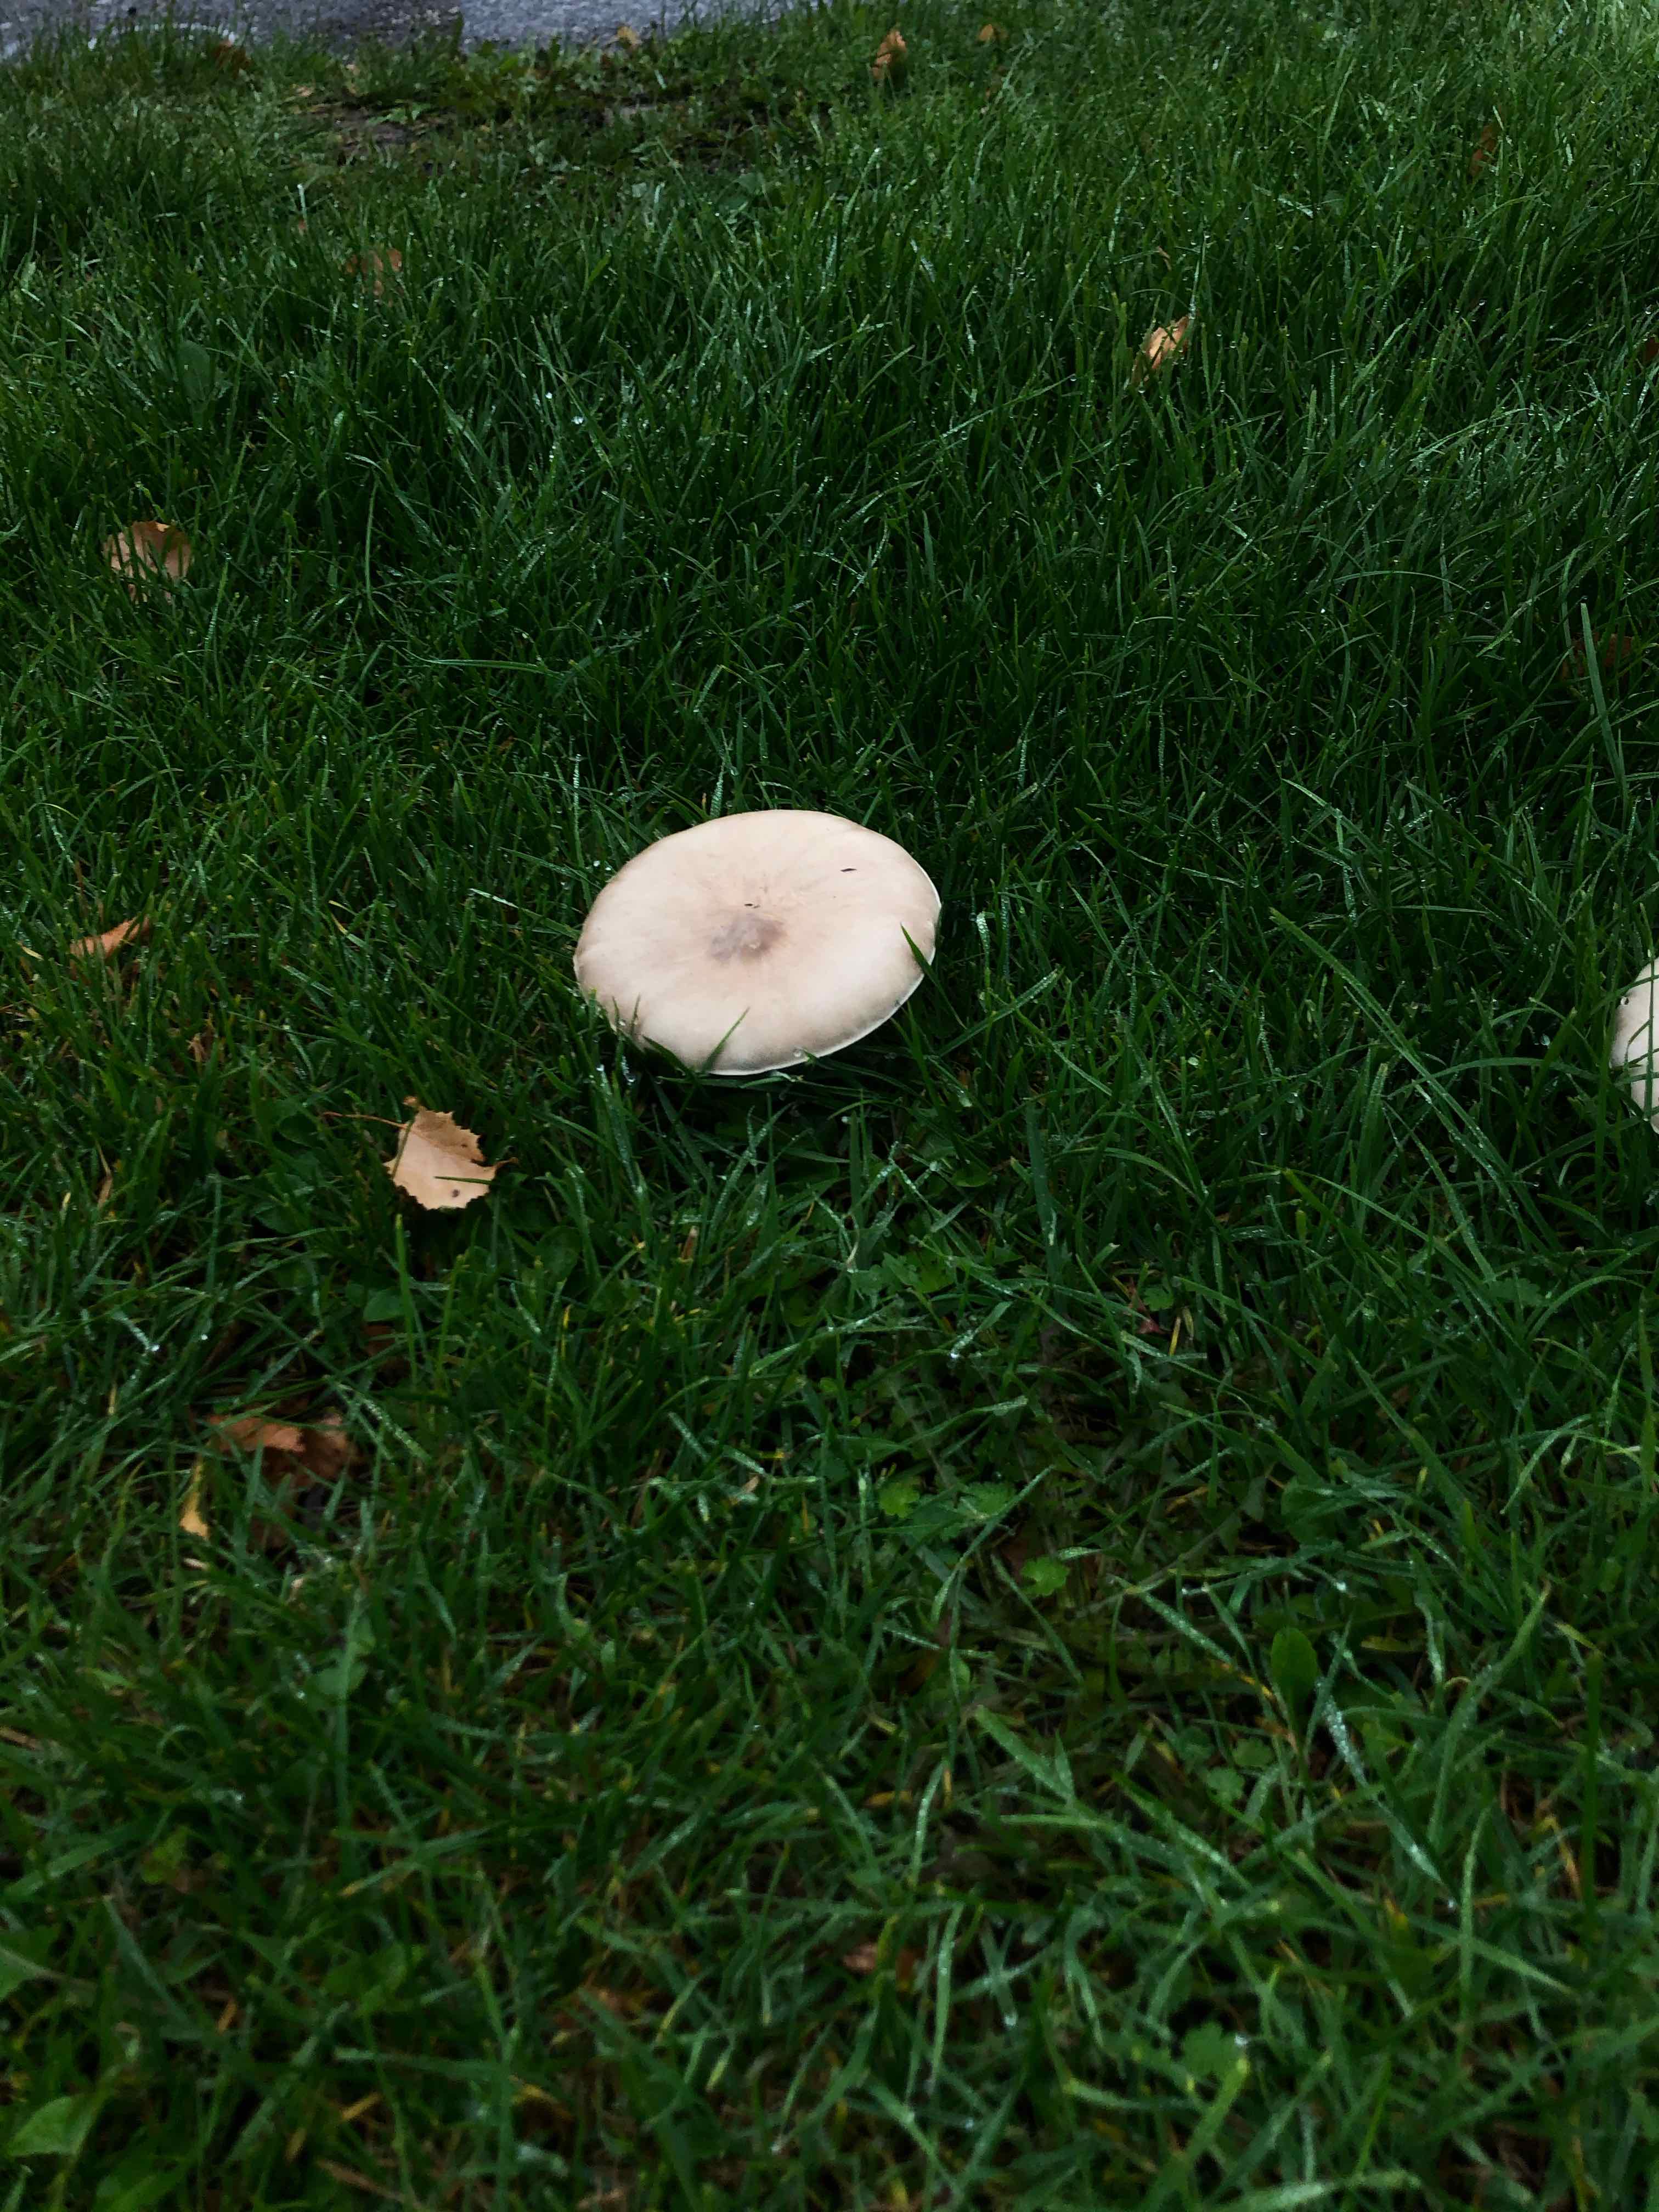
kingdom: Fungi
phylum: Basidiomycota
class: Agaricomycetes
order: Agaricales
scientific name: Agaricales
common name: champignonordenen
